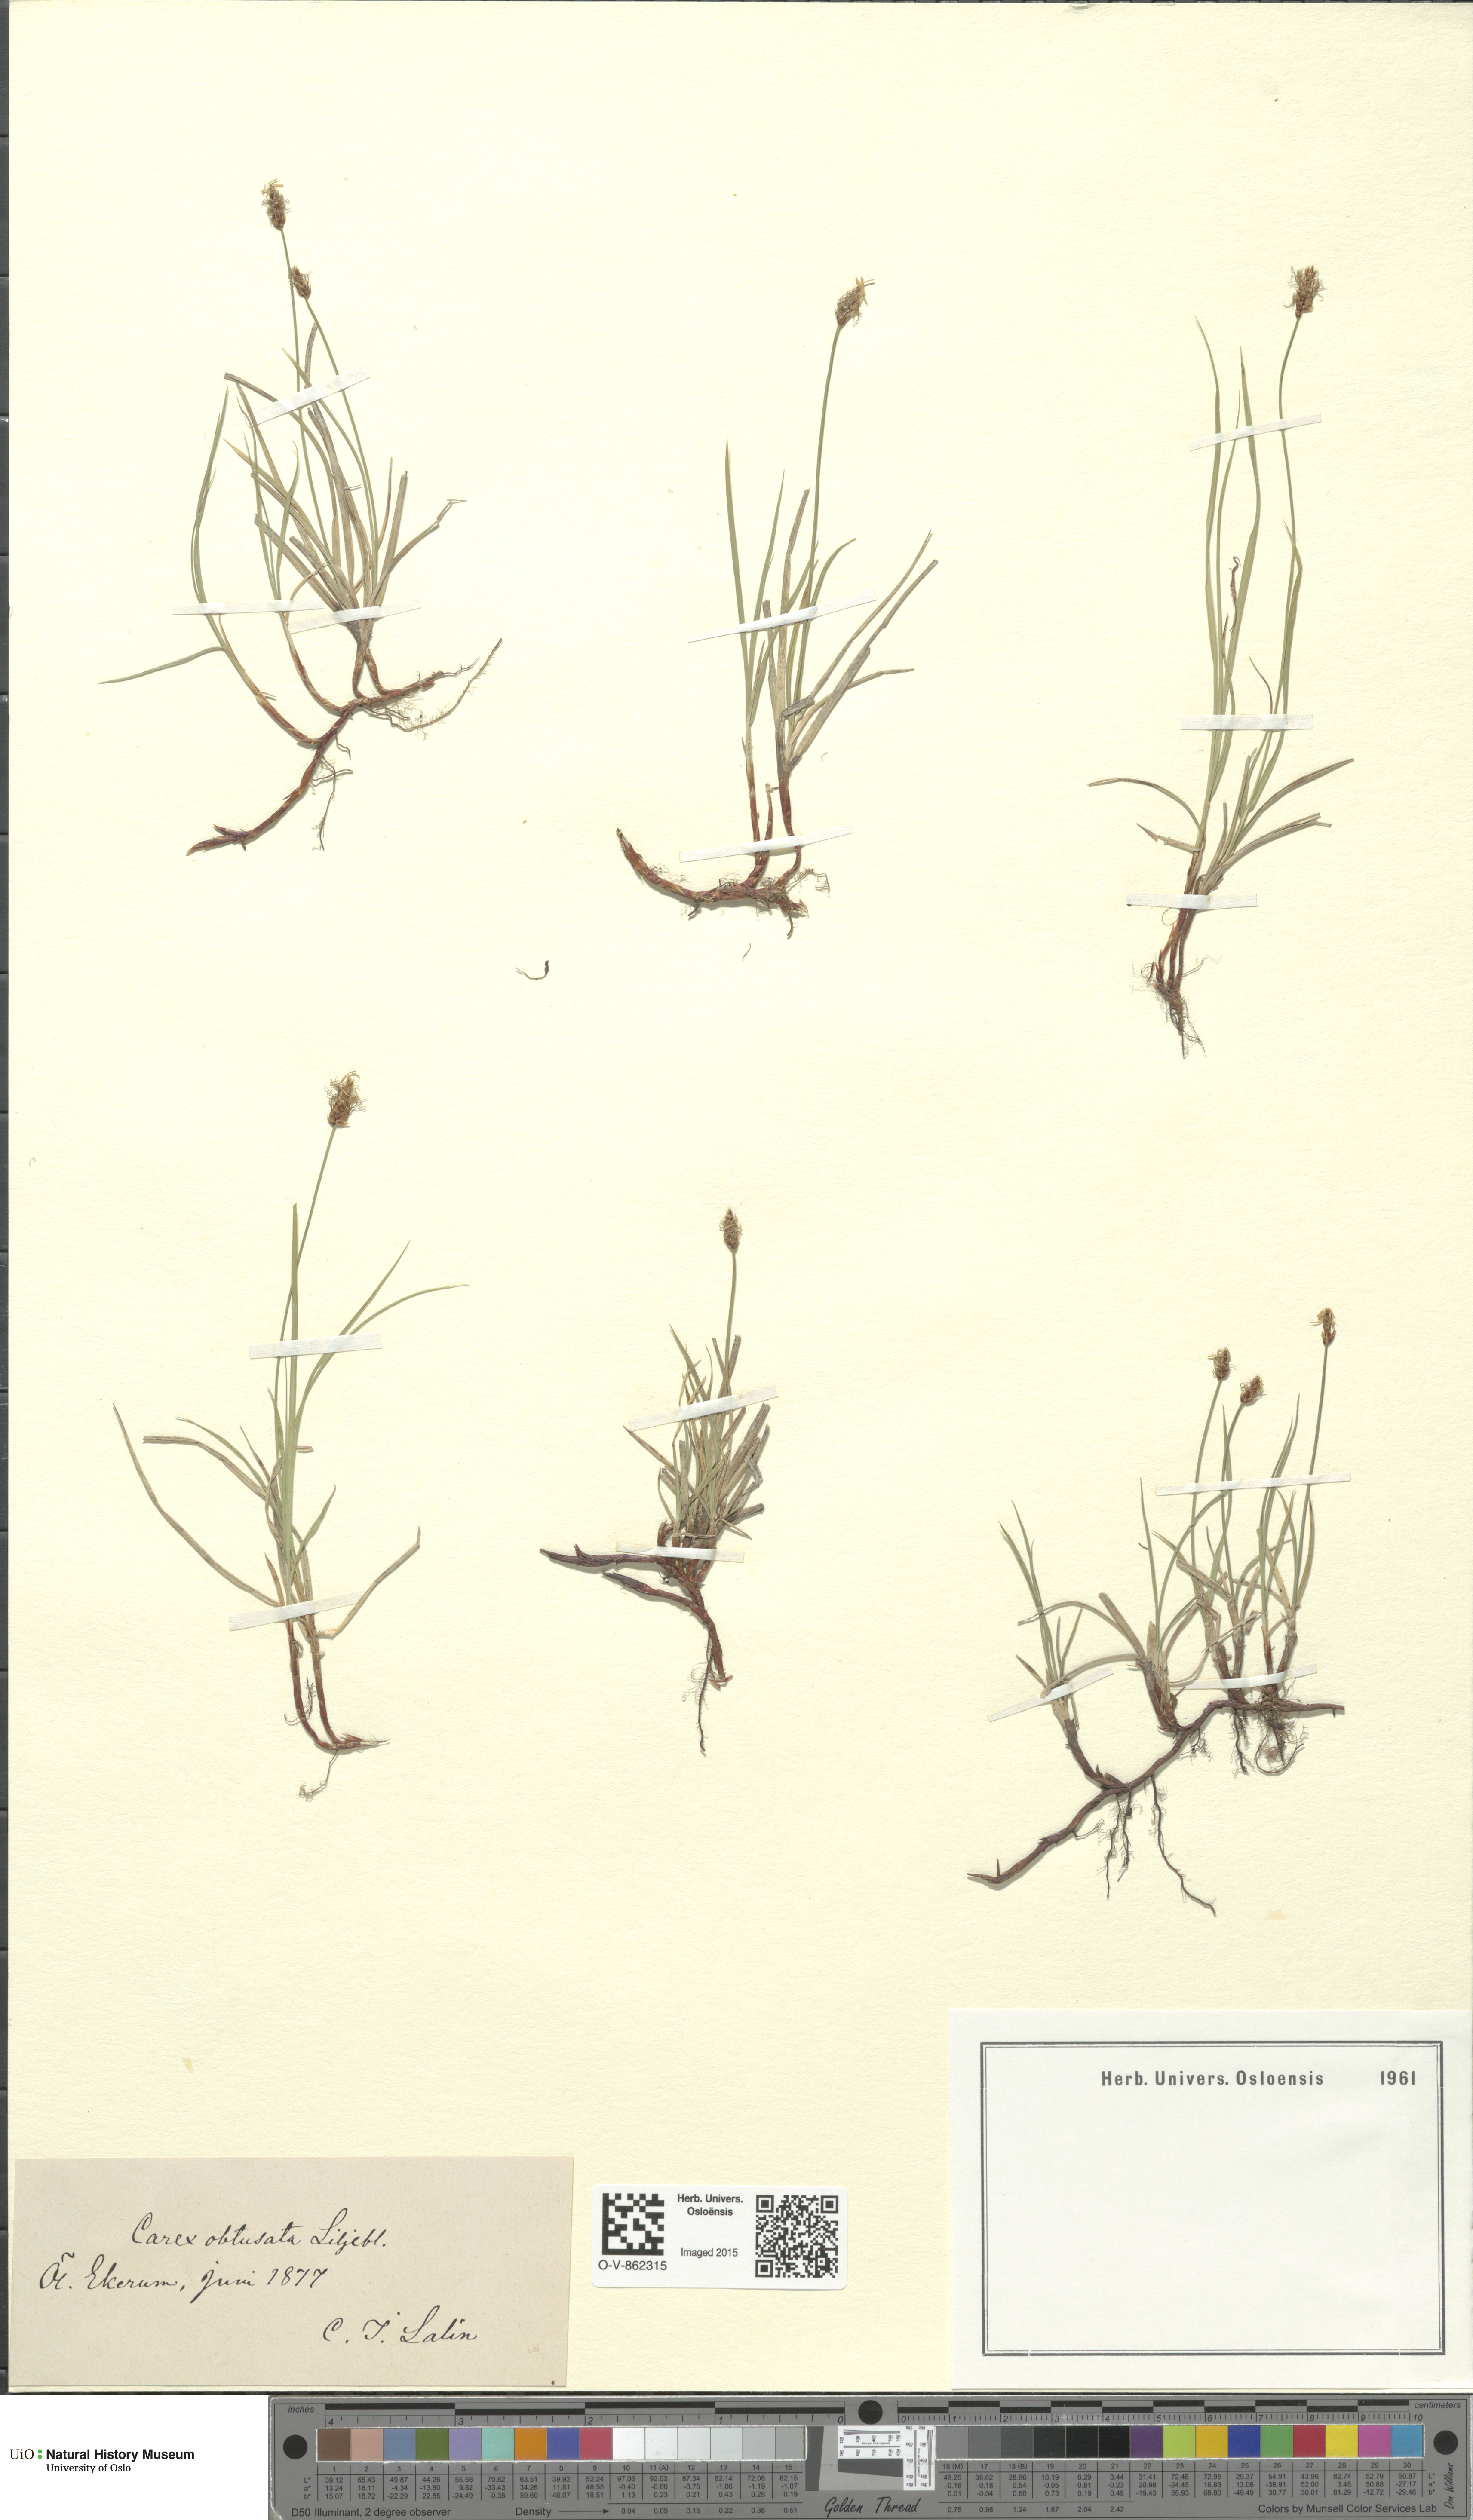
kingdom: Plantae
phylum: Tracheophyta
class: Liliopsida
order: Poales
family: Cyperaceae
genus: Carex
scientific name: Carex obtusata
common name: Blunt sedge
